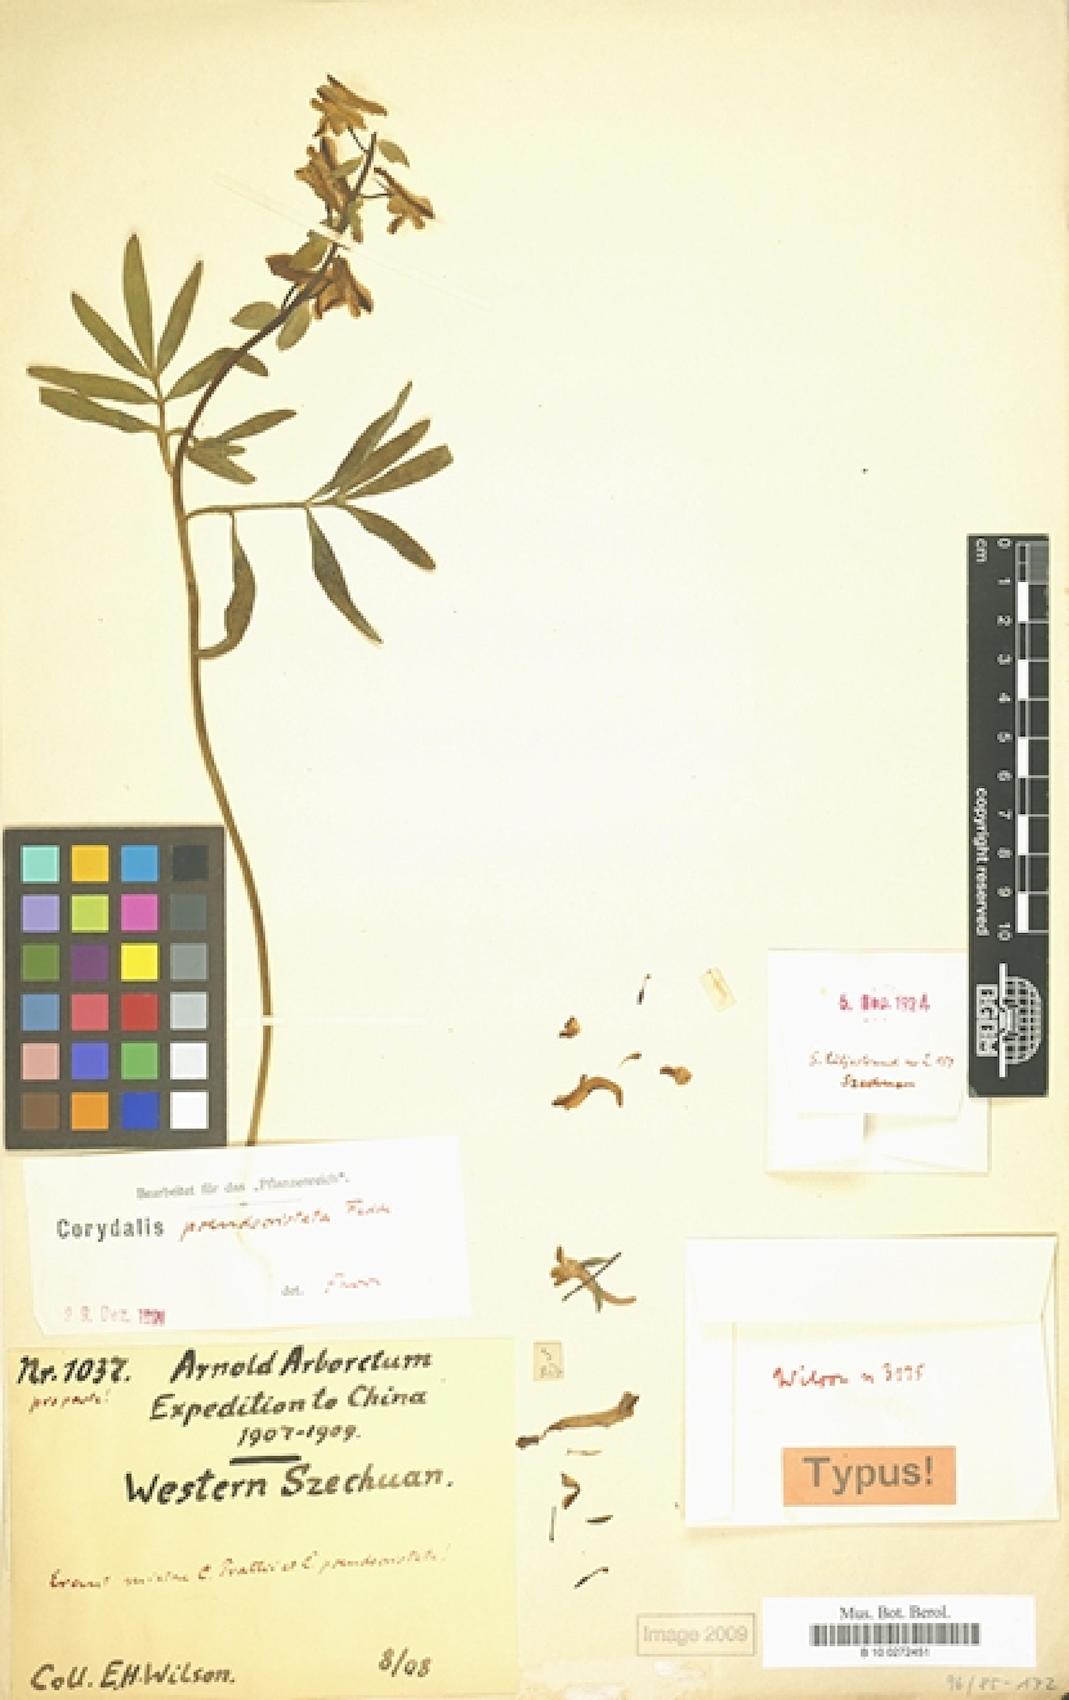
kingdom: Plantae
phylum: Tracheophyta
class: Magnoliopsida
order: Ranunculales
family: Papaveraceae
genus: Corydalis
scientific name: Corydalis pseudocristata
